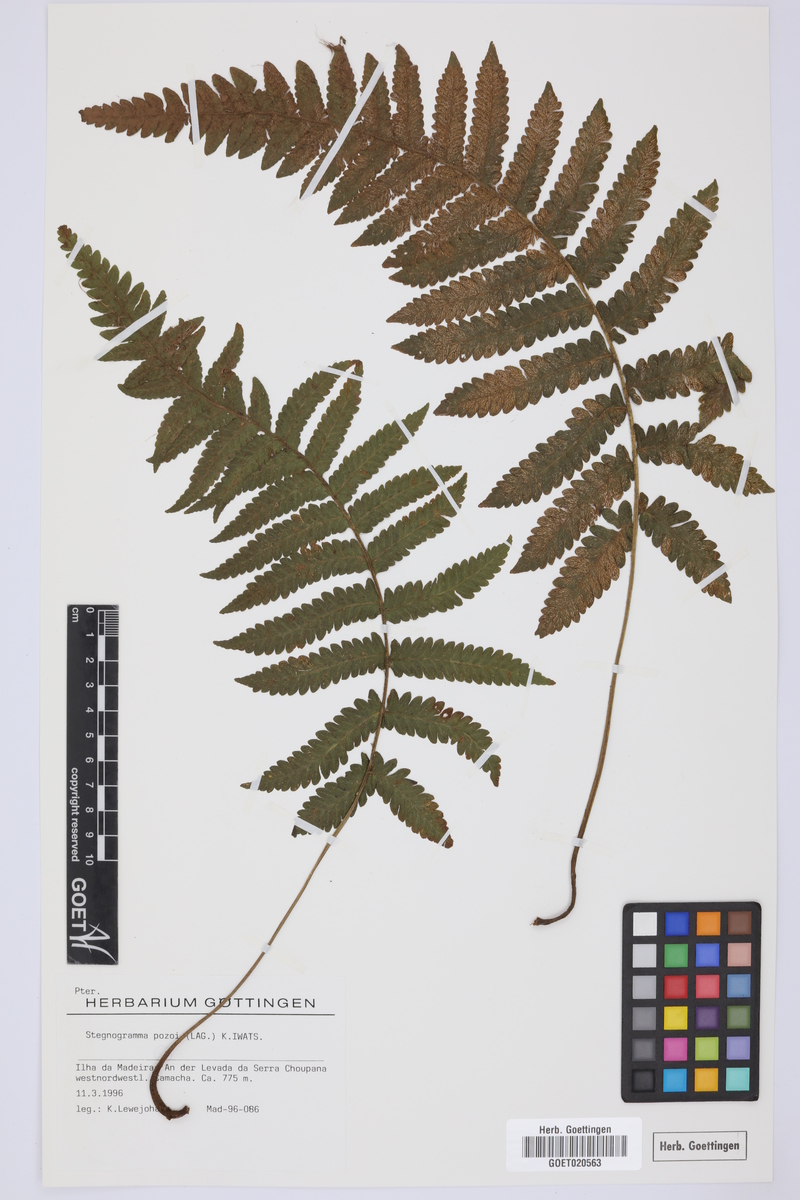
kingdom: Plantae
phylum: Tracheophyta
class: Polypodiopsida
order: Polypodiales
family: Thelypteridaceae
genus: Leptogramma
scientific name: Leptogramma pozoi
